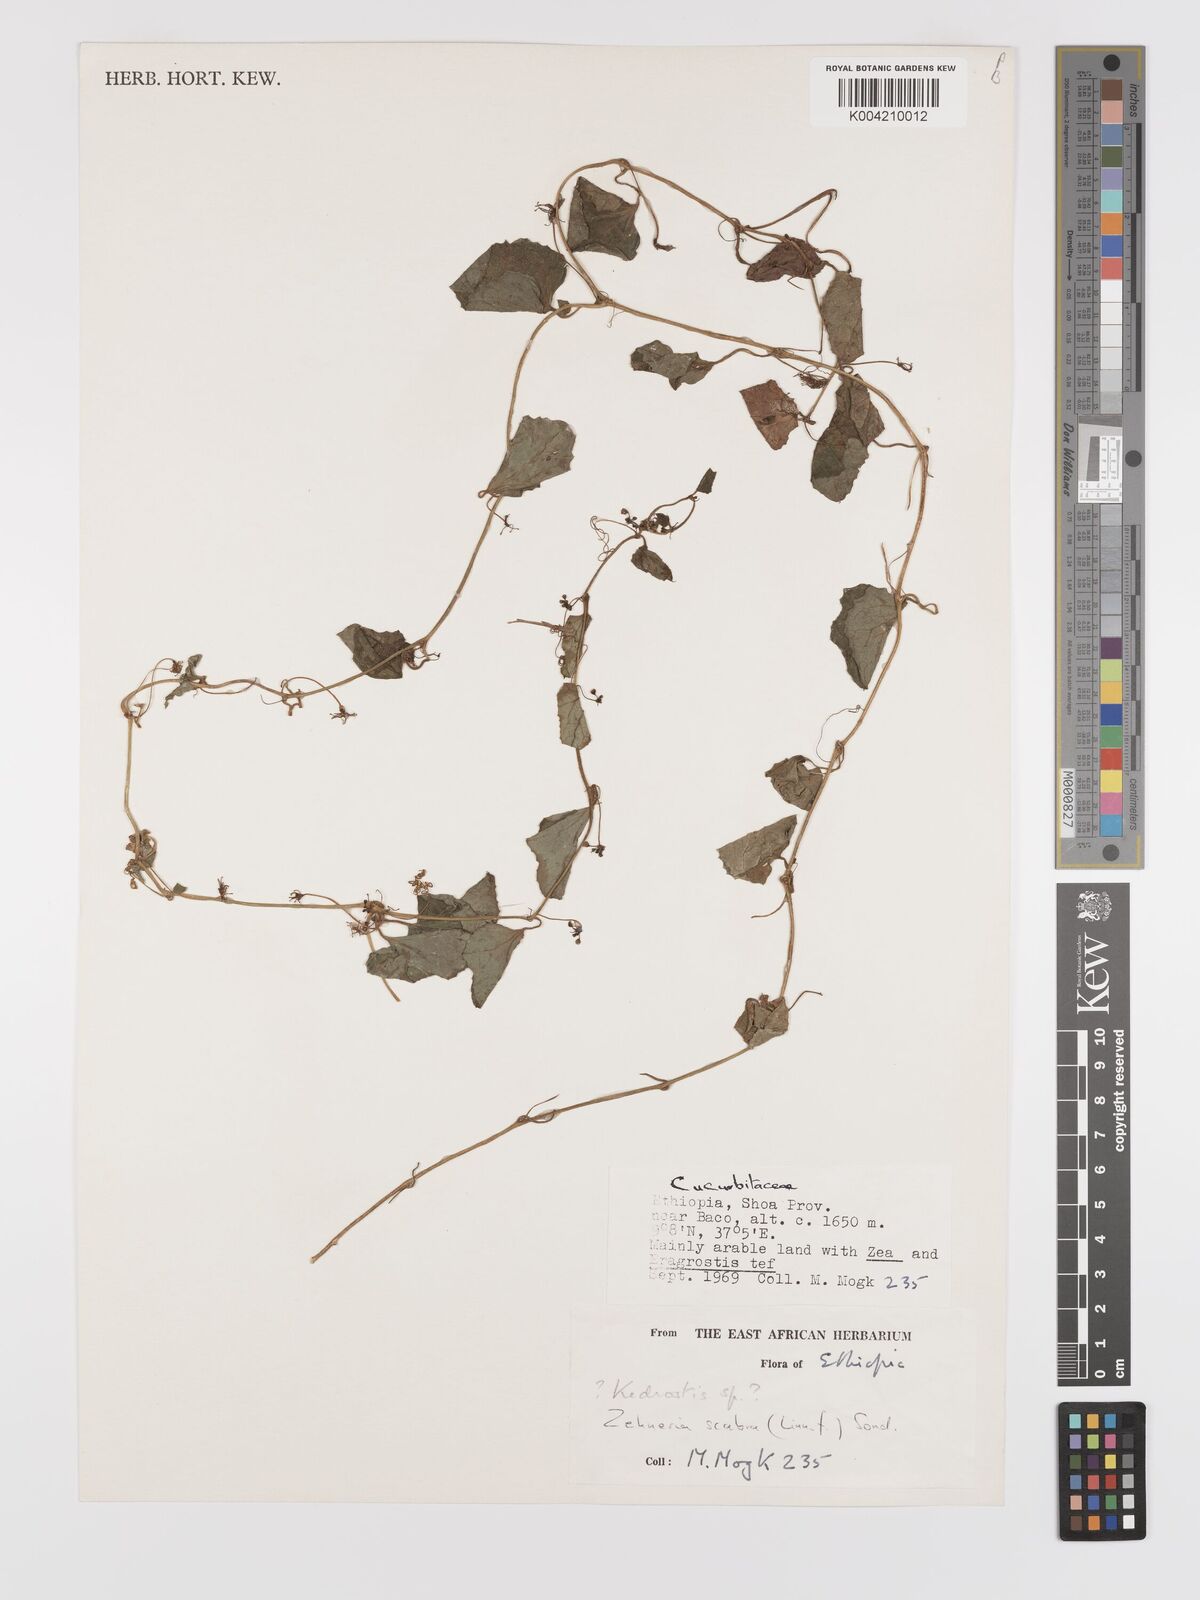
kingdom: Plantae
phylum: Tracheophyta
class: Magnoliopsida
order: Cucurbitales
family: Cucurbitaceae
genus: Zehneria
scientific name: Zehneria scabra
